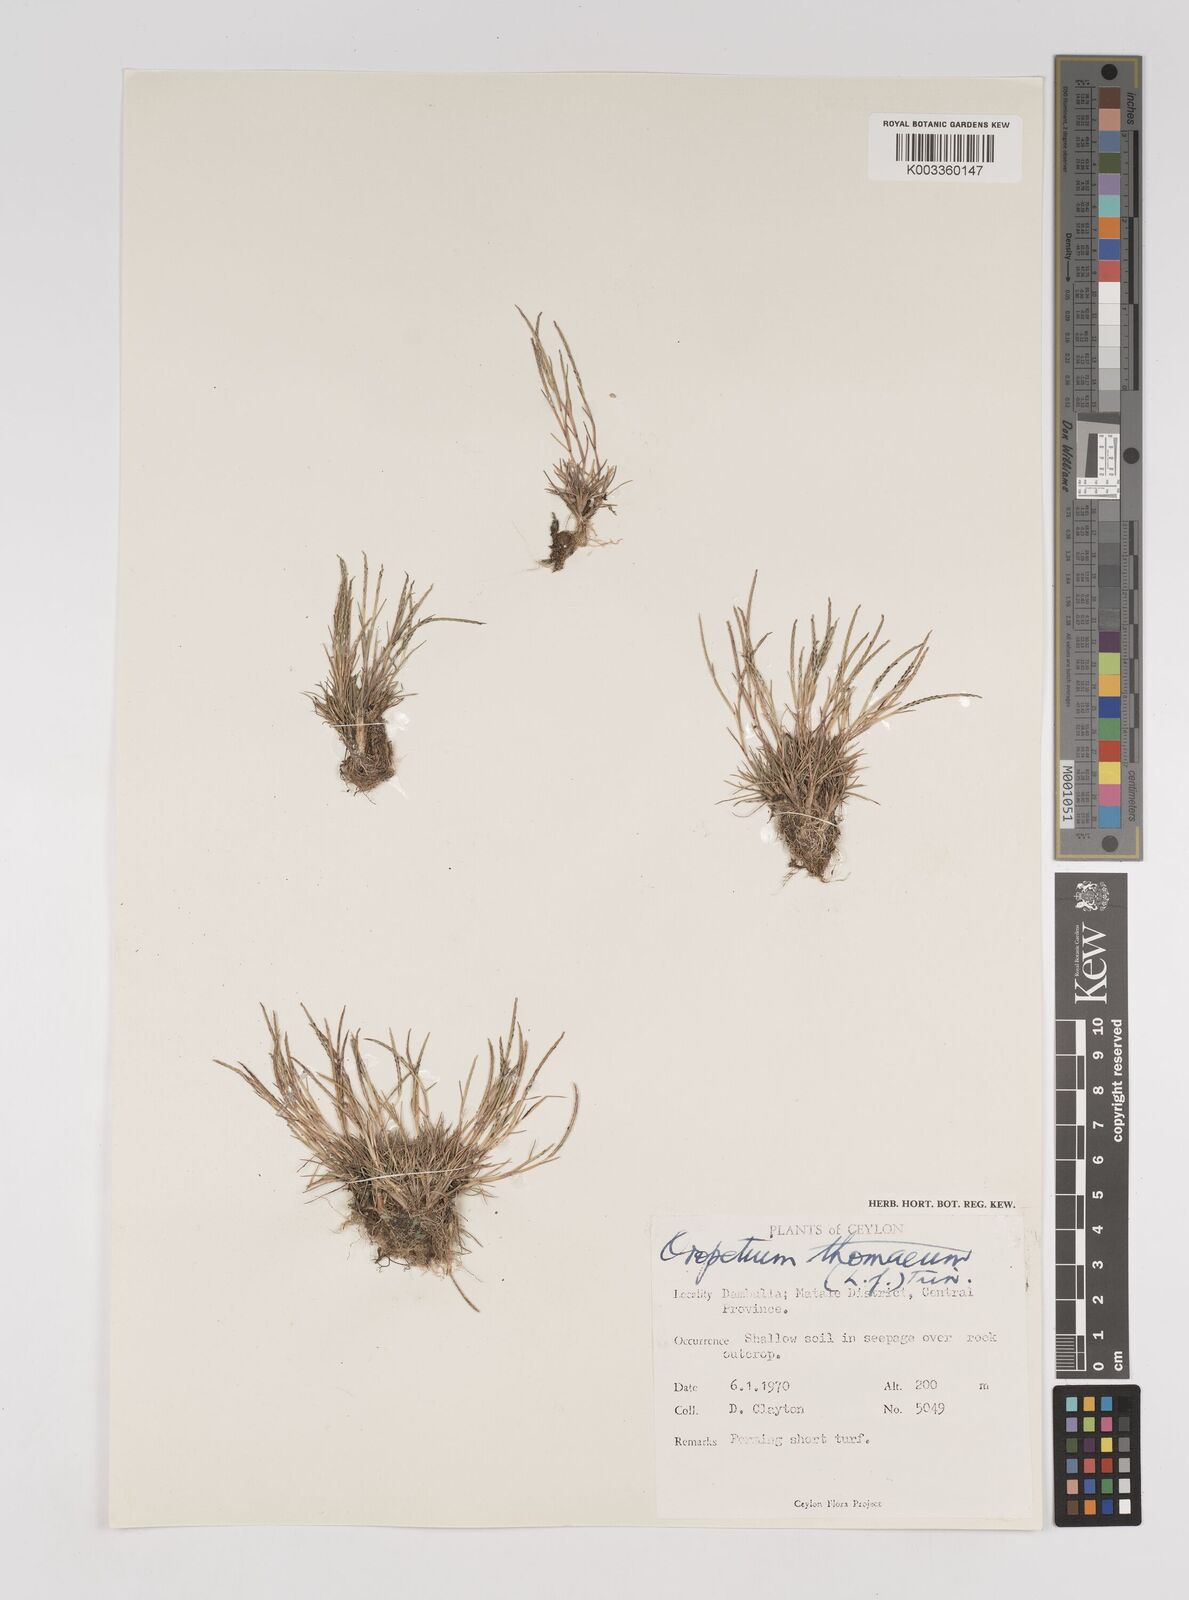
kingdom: Plantae
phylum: Tracheophyta
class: Liliopsida
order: Poales
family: Poaceae
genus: Oropetium
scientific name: Oropetium thomaeum
